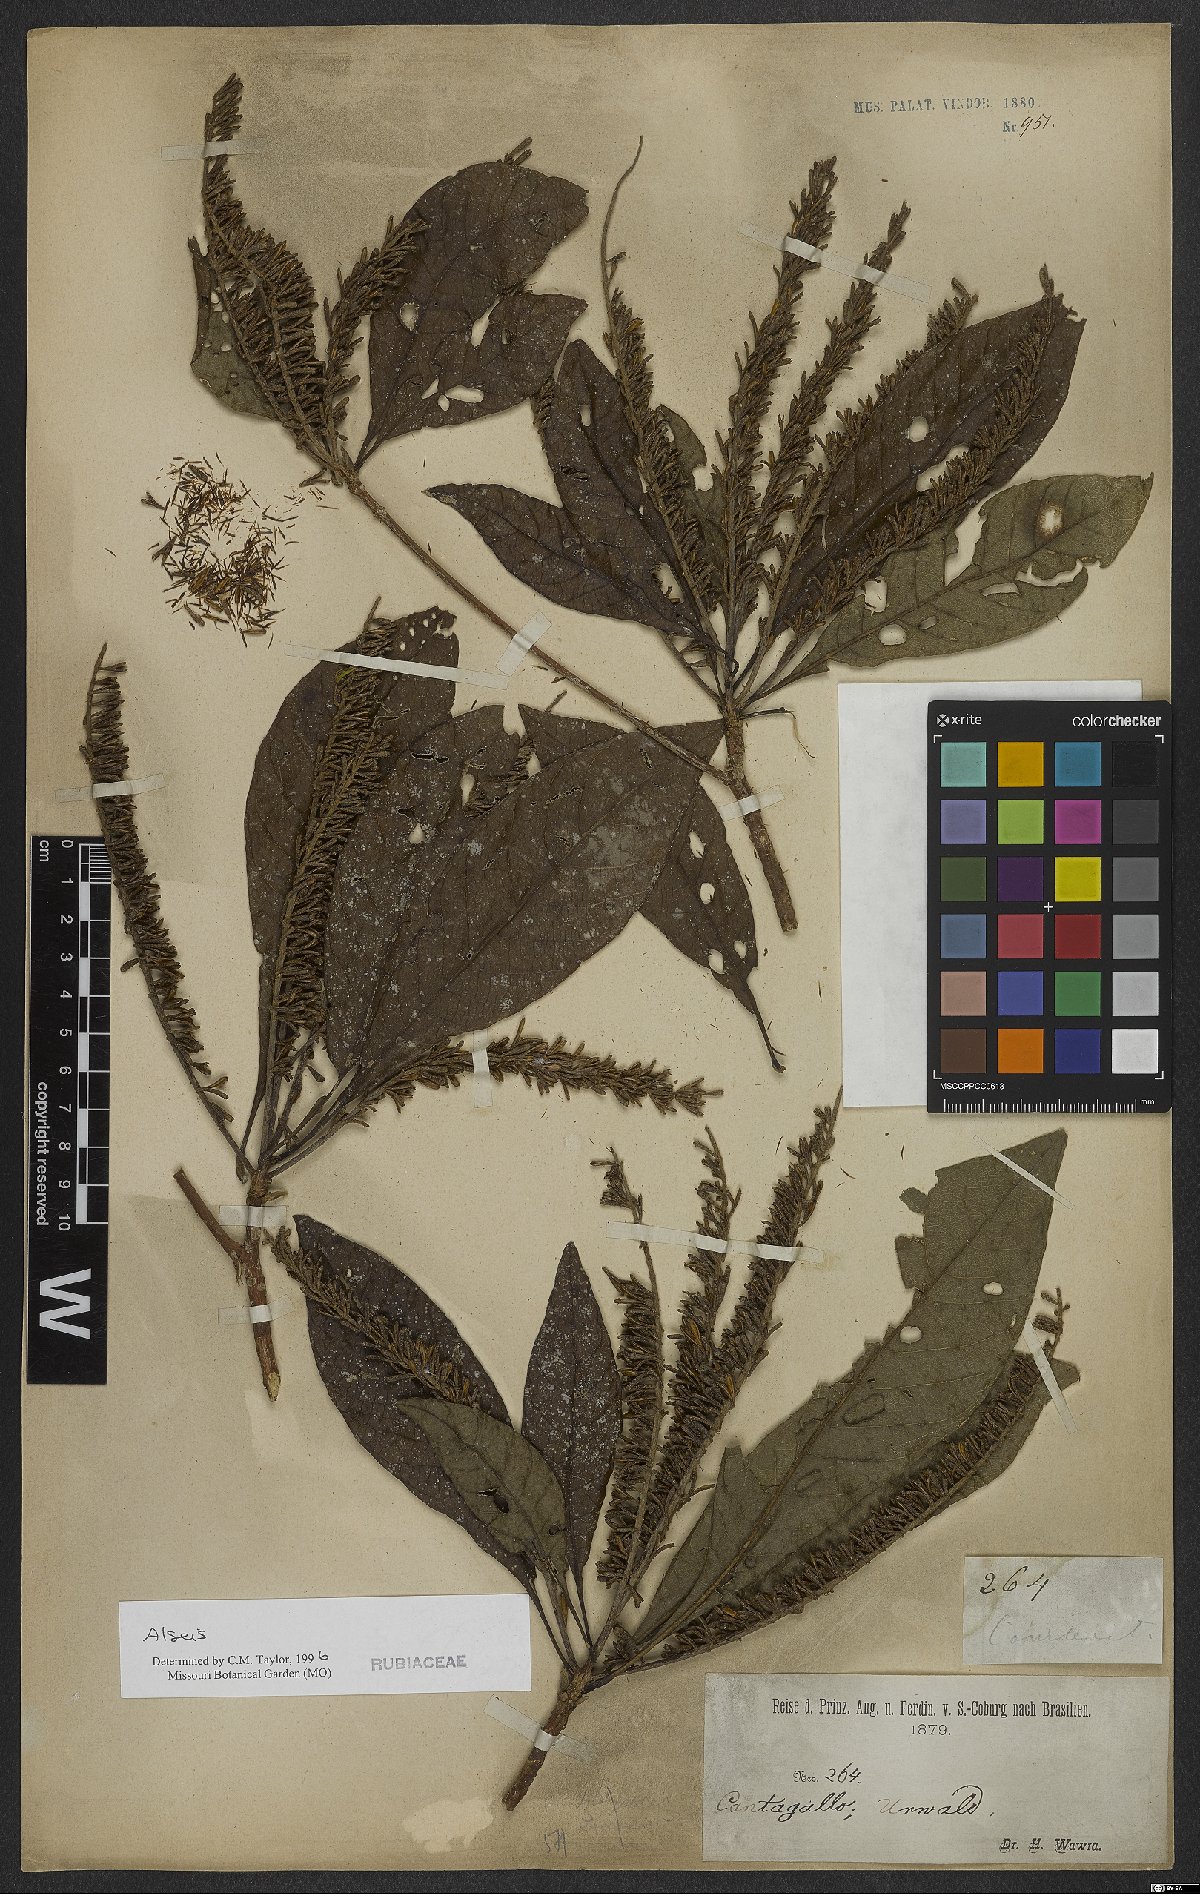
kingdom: Plantae
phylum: Tracheophyta
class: Magnoliopsida
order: Gentianales
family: Rubiaceae
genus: Alseis
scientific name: Alseis
